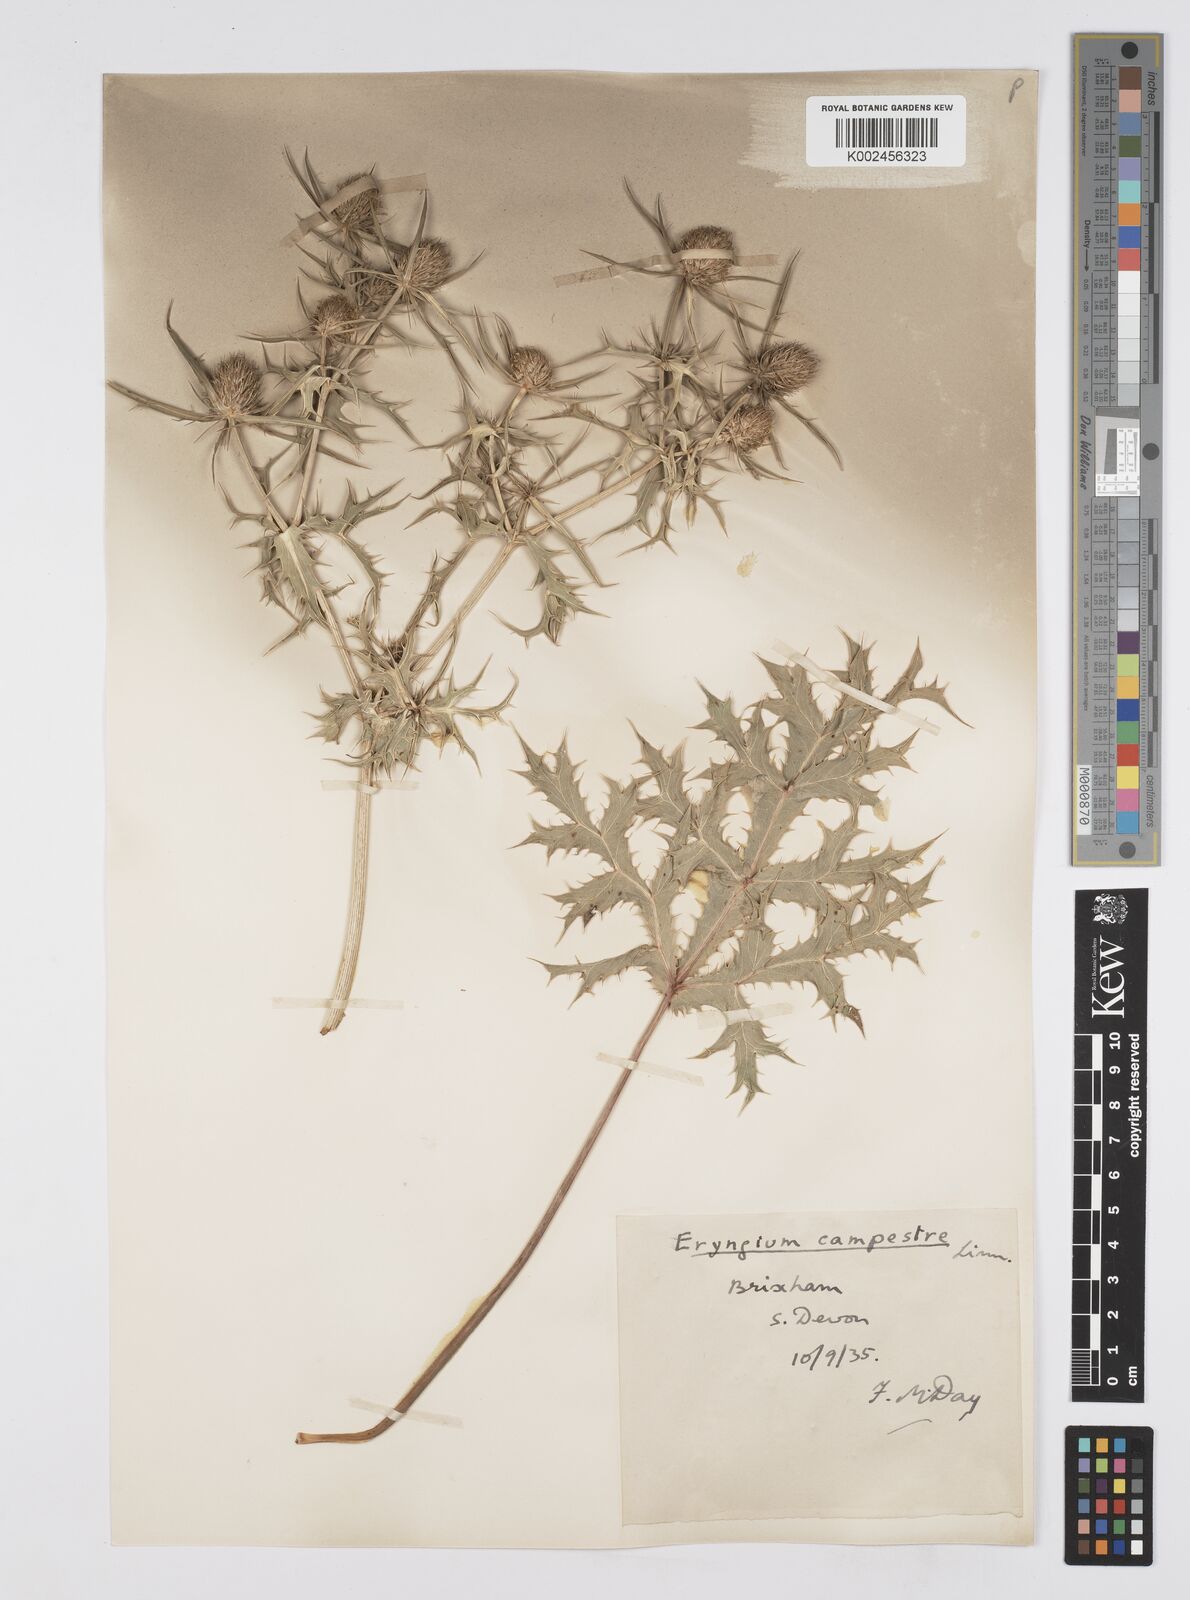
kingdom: Plantae
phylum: Tracheophyta
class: Magnoliopsida
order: Apiales
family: Apiaceae
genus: Eryngium
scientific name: Eryngium campestre
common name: Field eryngo
